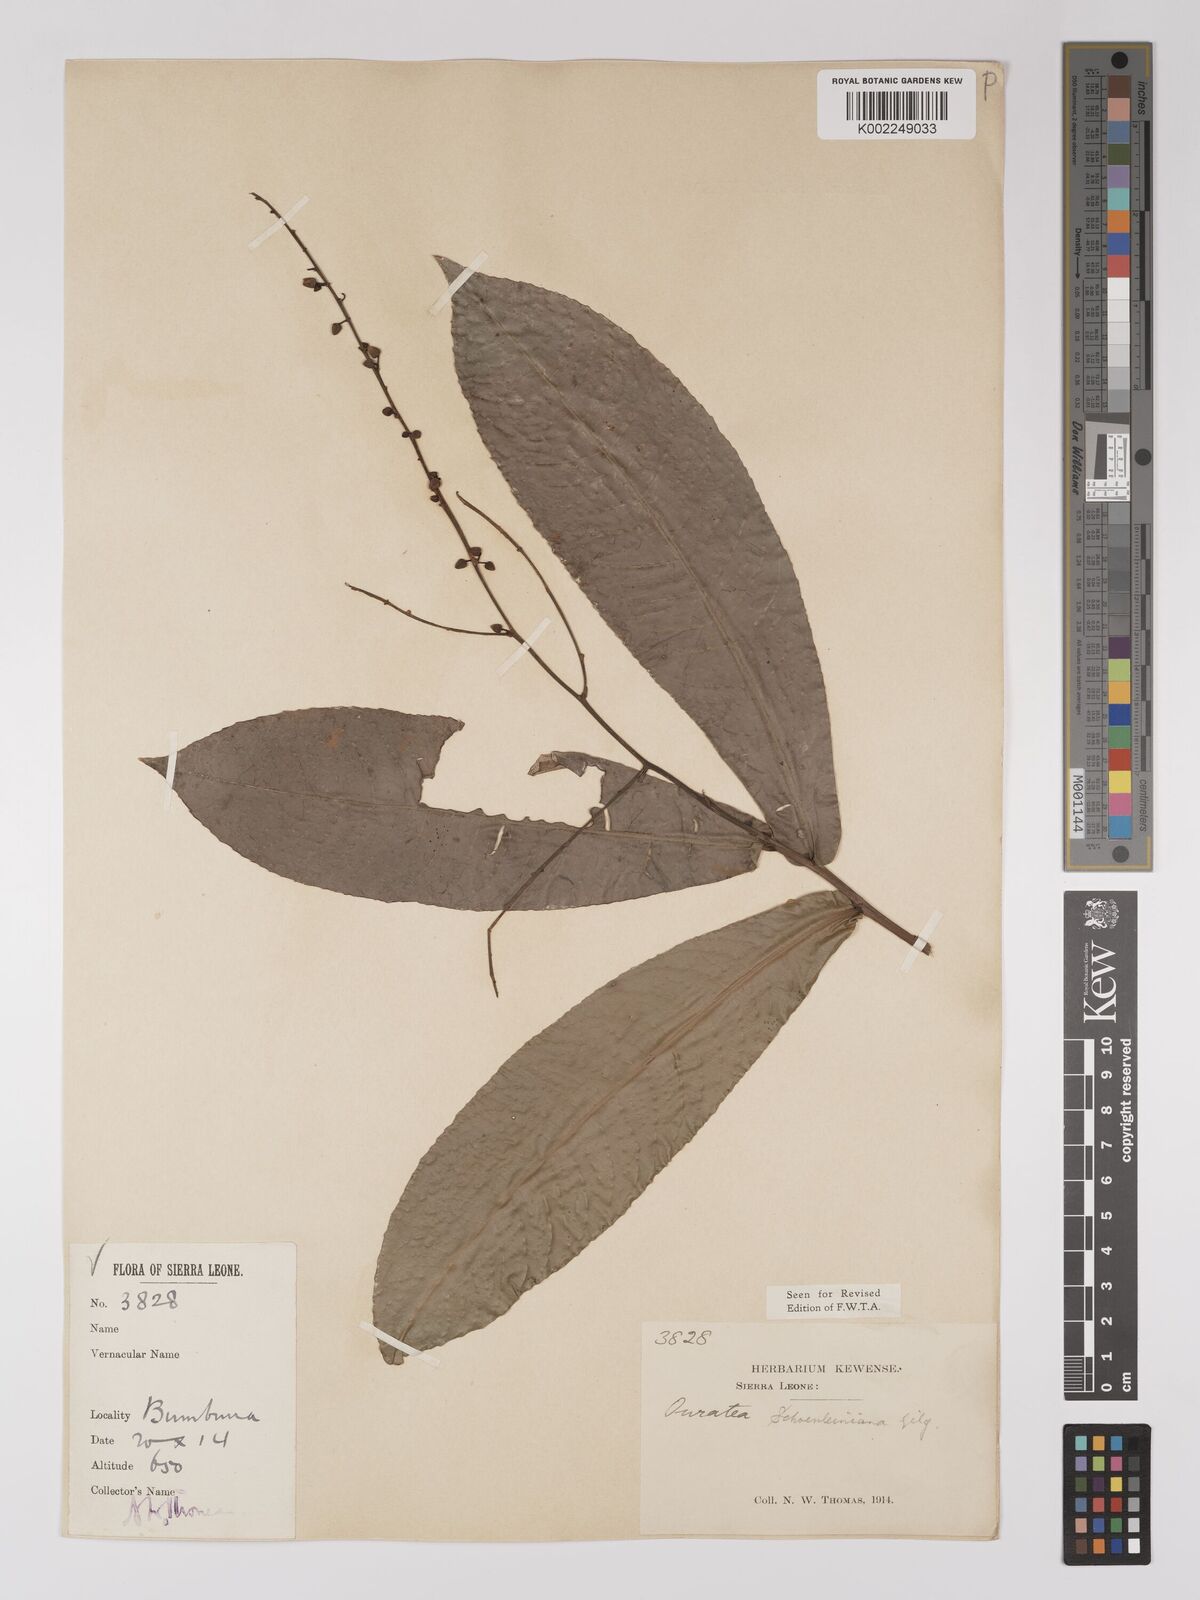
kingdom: Plantae
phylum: Tracheophyta
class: Magnoliopsida
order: Malpighiales
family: Ochnaceae
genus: Campylospermum
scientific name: Campylospermum schoenleinianum
